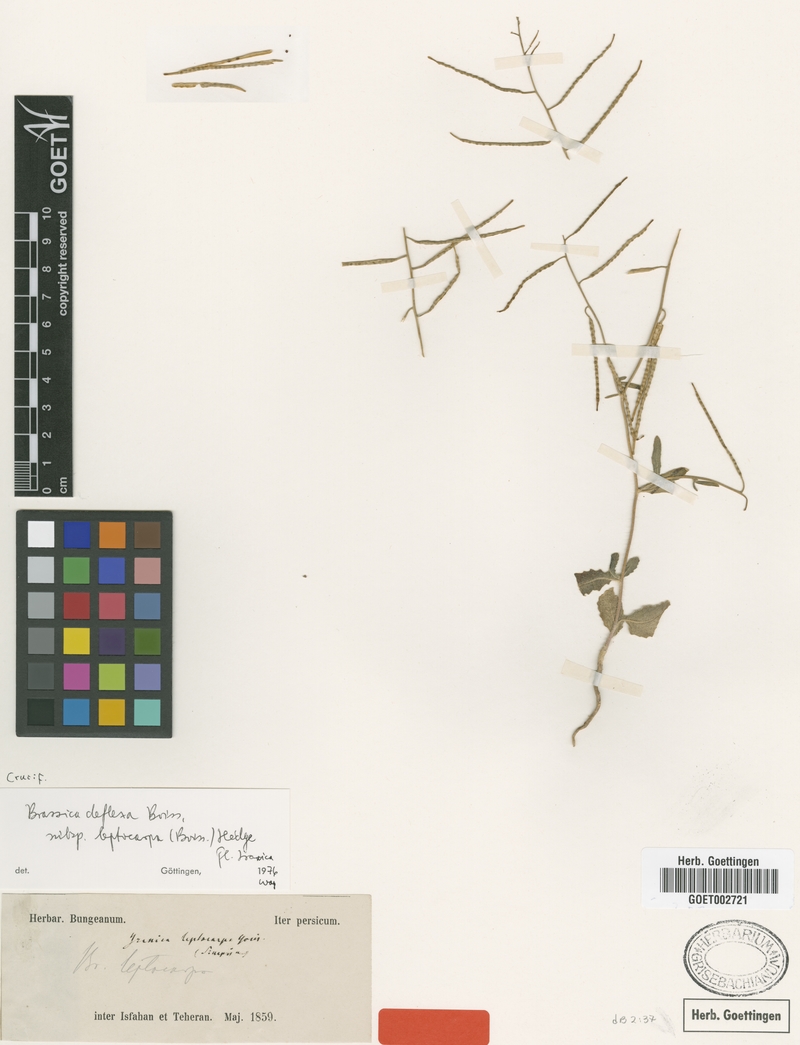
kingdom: Plantae
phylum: Tracheophyta
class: Magnoliopsida
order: Brassicales
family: Brassicaceae
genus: Brassica
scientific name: Brassica deflexa
